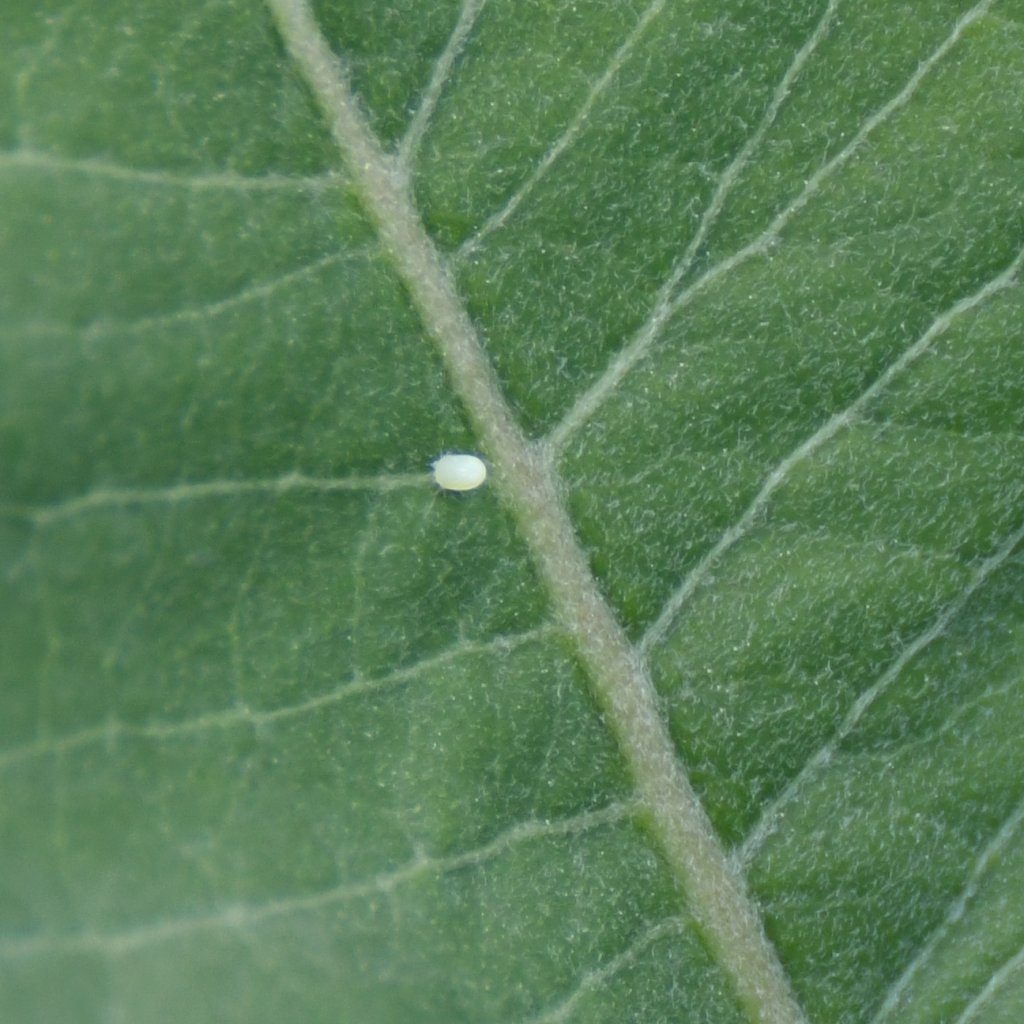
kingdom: Animalia
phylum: Arthropoda
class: Insecta
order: Lepidoptera
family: Nymphalidae
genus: Danaus
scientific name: Danaus plexippus
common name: Monarch
